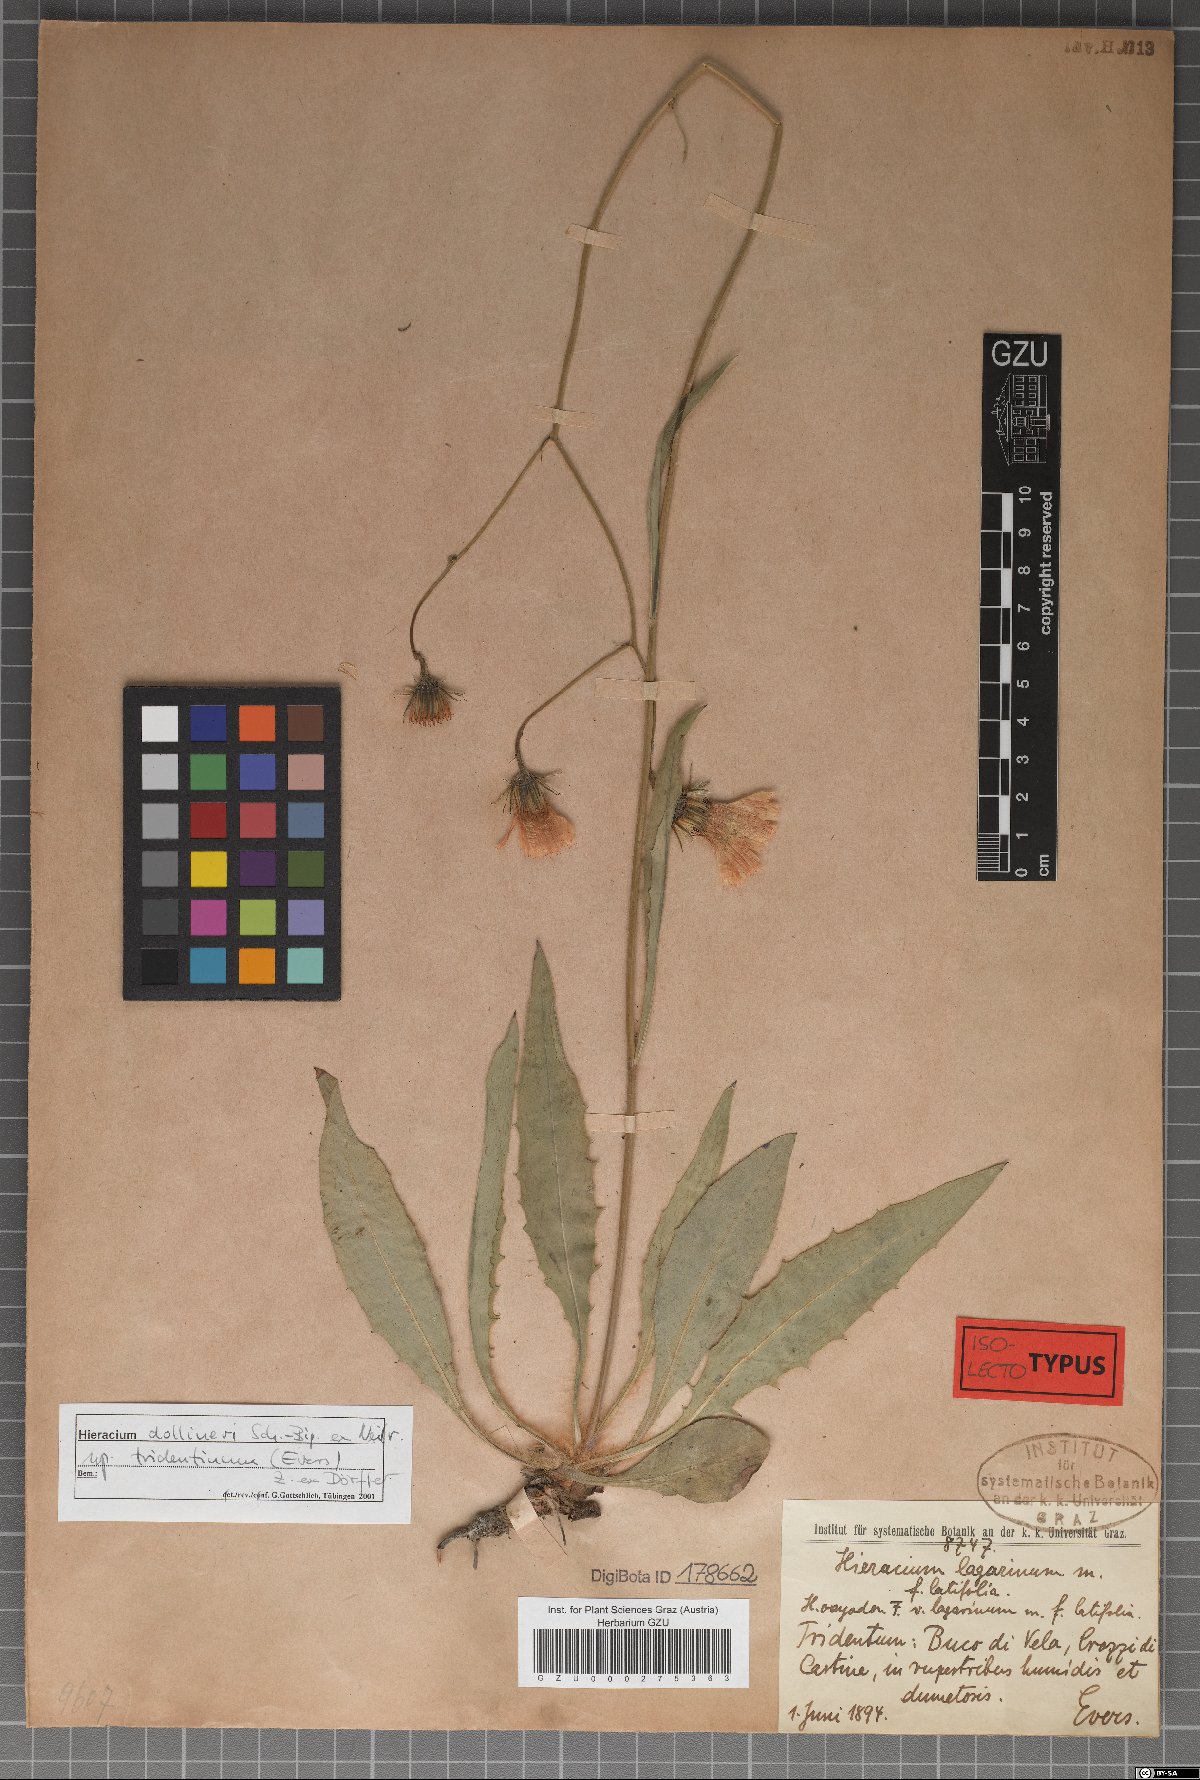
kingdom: Plantae
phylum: Tracheophyta
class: Magnoliopsida
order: Asterales
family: Asteraceae
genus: Hieracium
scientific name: Hieracium dollineri
